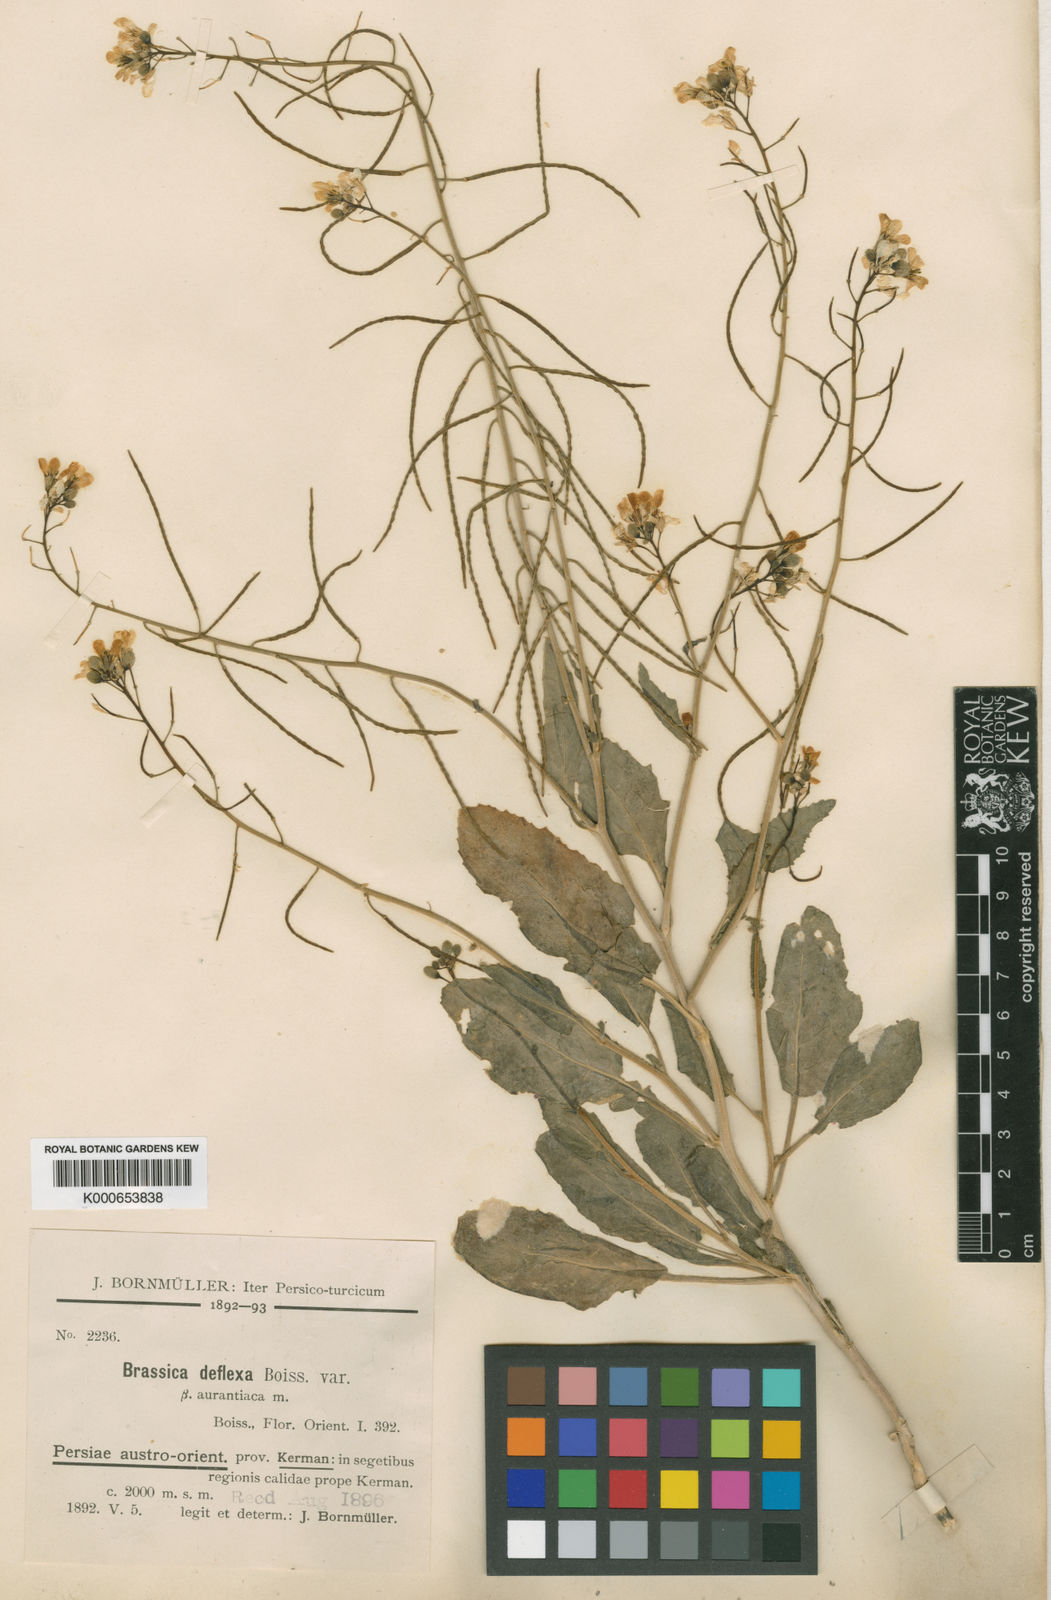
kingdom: Plantae
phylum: Tracheophyta
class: Magnoliopsida
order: Brassicales
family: Brassicaceae
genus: Brassica
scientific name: Brassica deflexa
